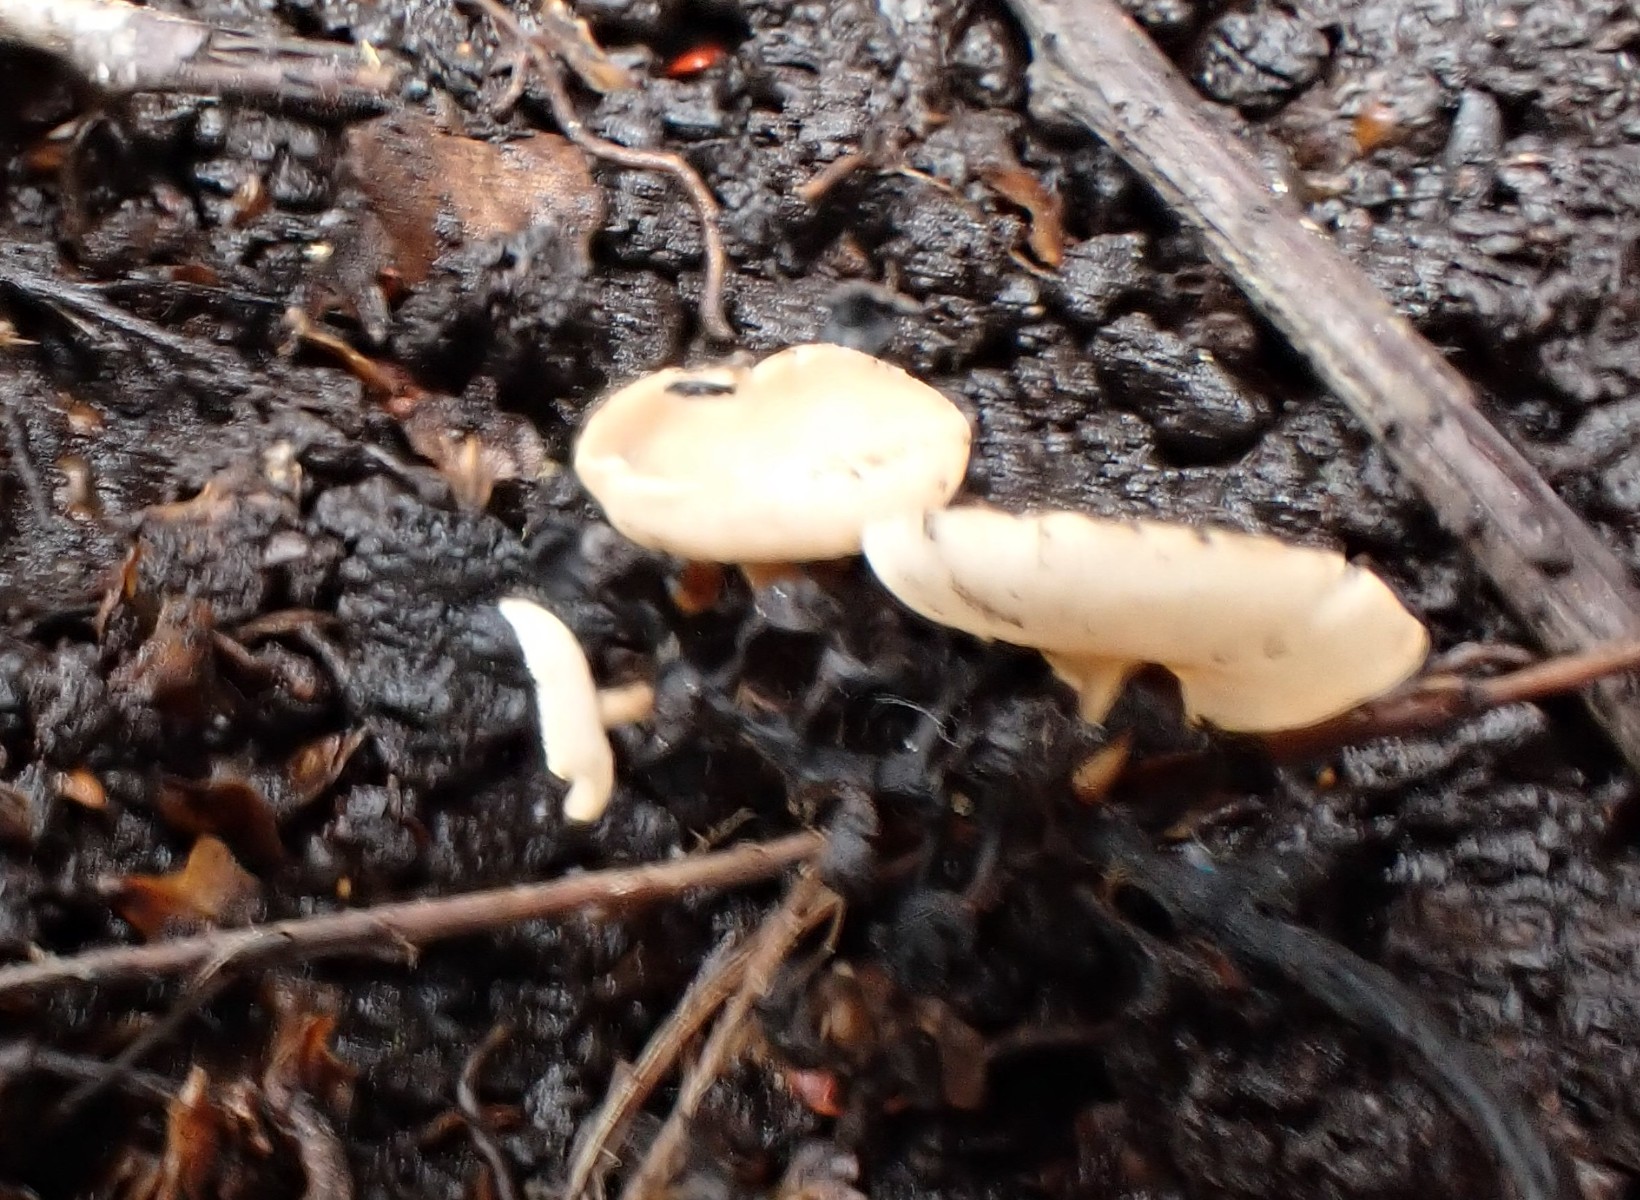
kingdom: Fungi
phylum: Ascomycota
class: Leotiomycetes
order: Helotiales
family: Sclerotiniaceae
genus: Ciboria
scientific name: Ciboria amentacea
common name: ellerakle-knoldskive
